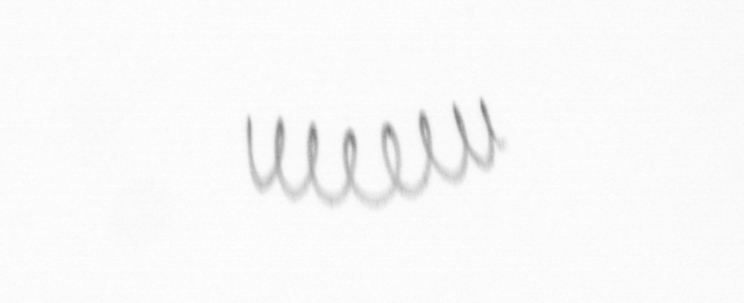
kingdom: Chromista
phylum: Ochrophyta
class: Bacillariophyceae
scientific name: Bacillariophyceae
